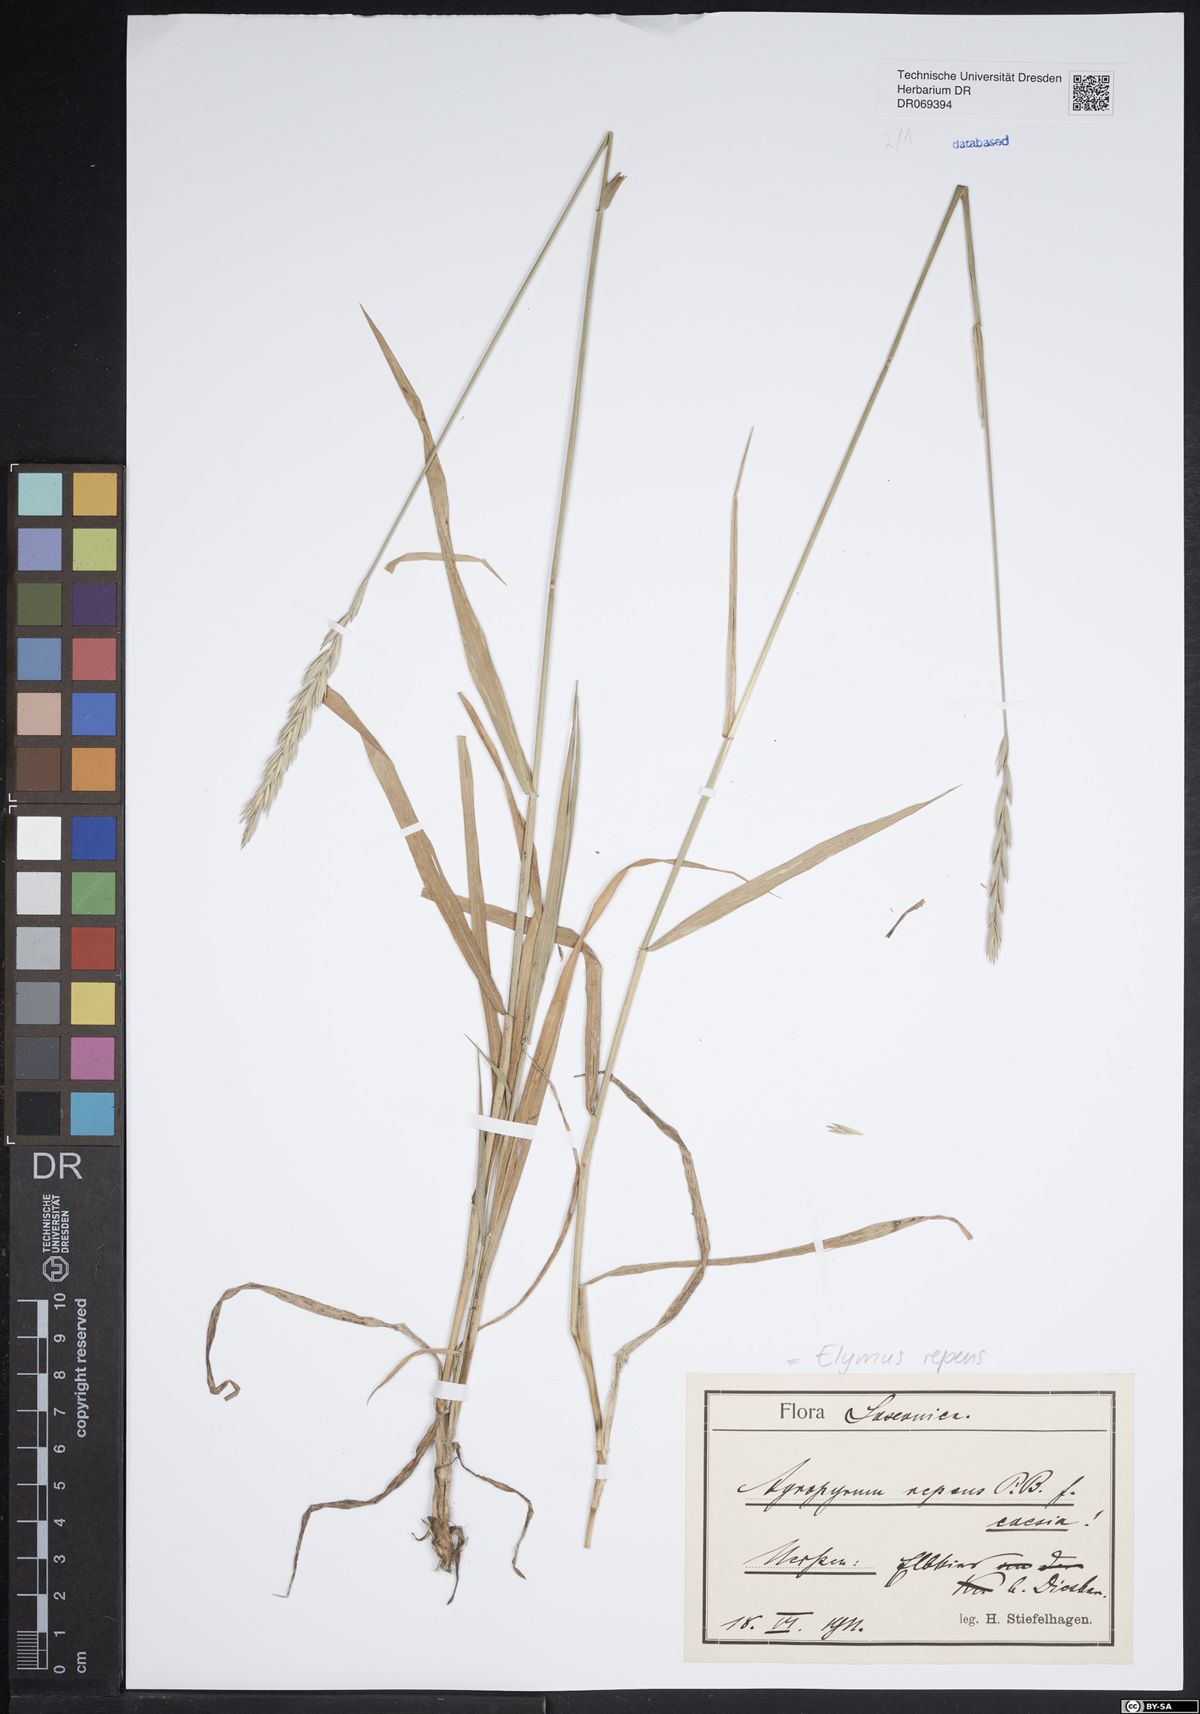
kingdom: Plantae
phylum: Tracheophyta
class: Liliopsida
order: Poales
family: Poaceae
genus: Elymus
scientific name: Elymus repens
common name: Quackgrass
